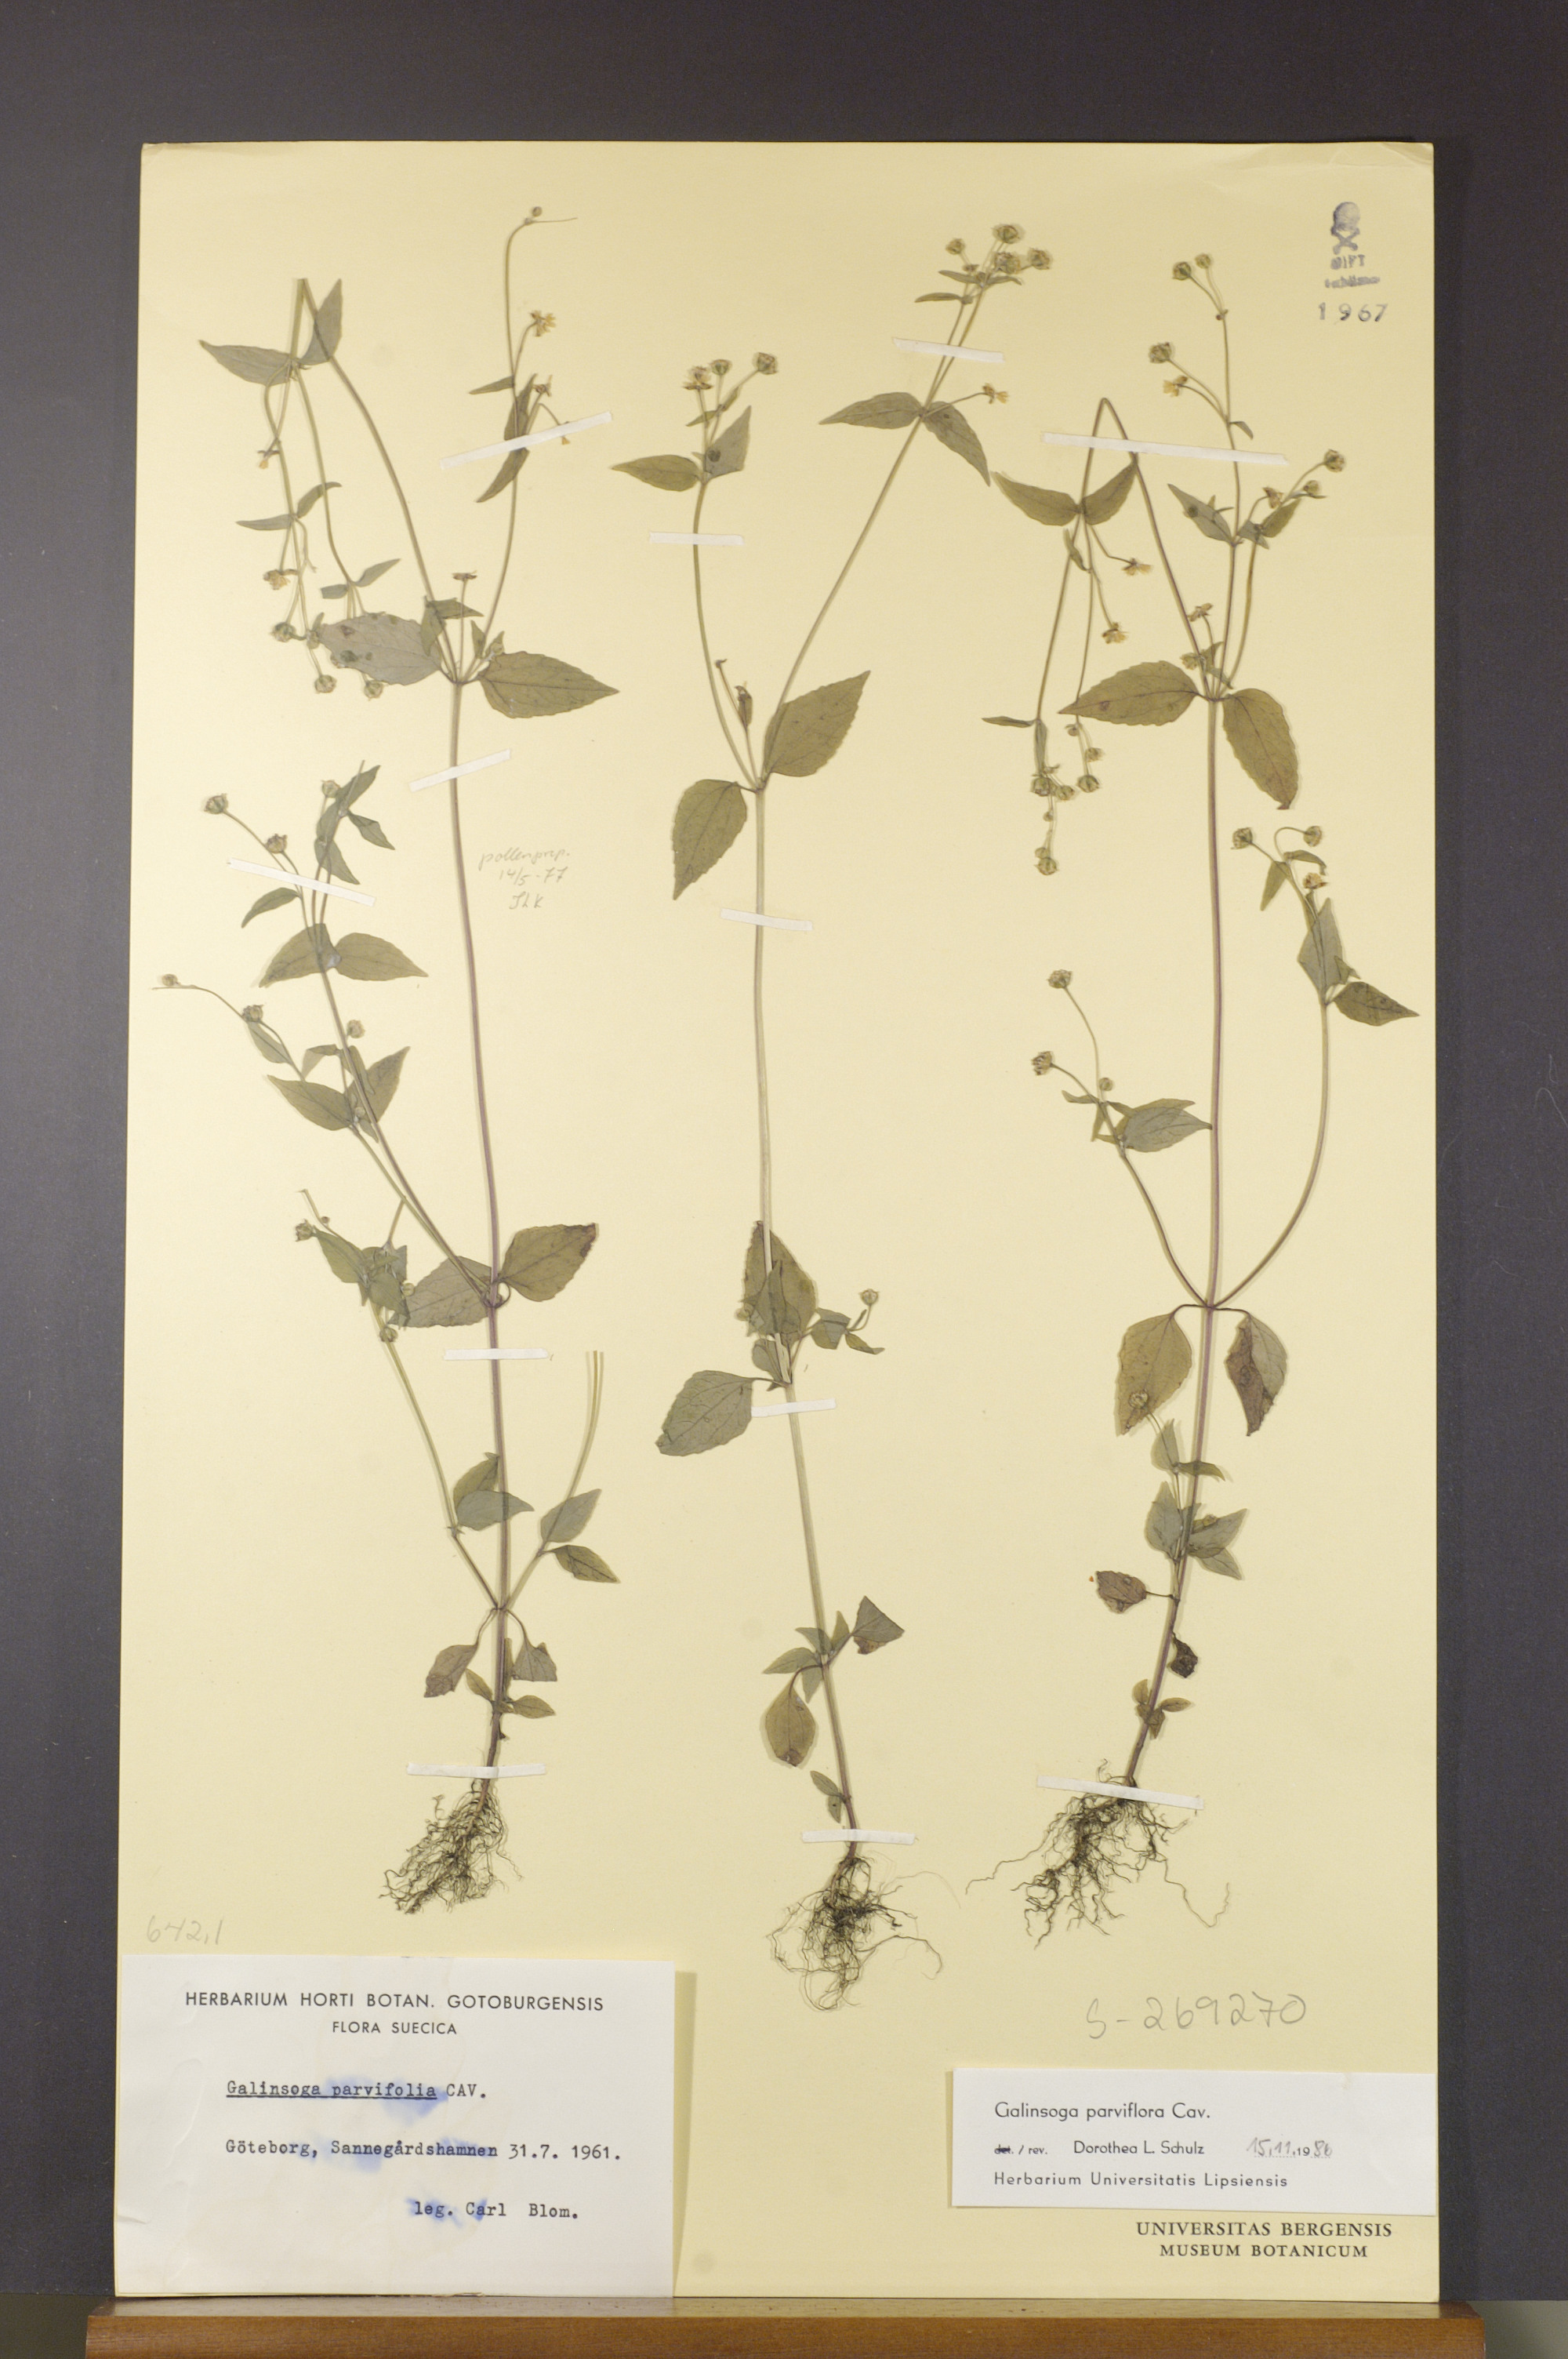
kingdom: Plantae
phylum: Tracheophyta
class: Magnoliopsida
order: Asterales
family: Asteraceae
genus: Galinsoga
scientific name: Galinsoga parviflora
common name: Gallant soldier
